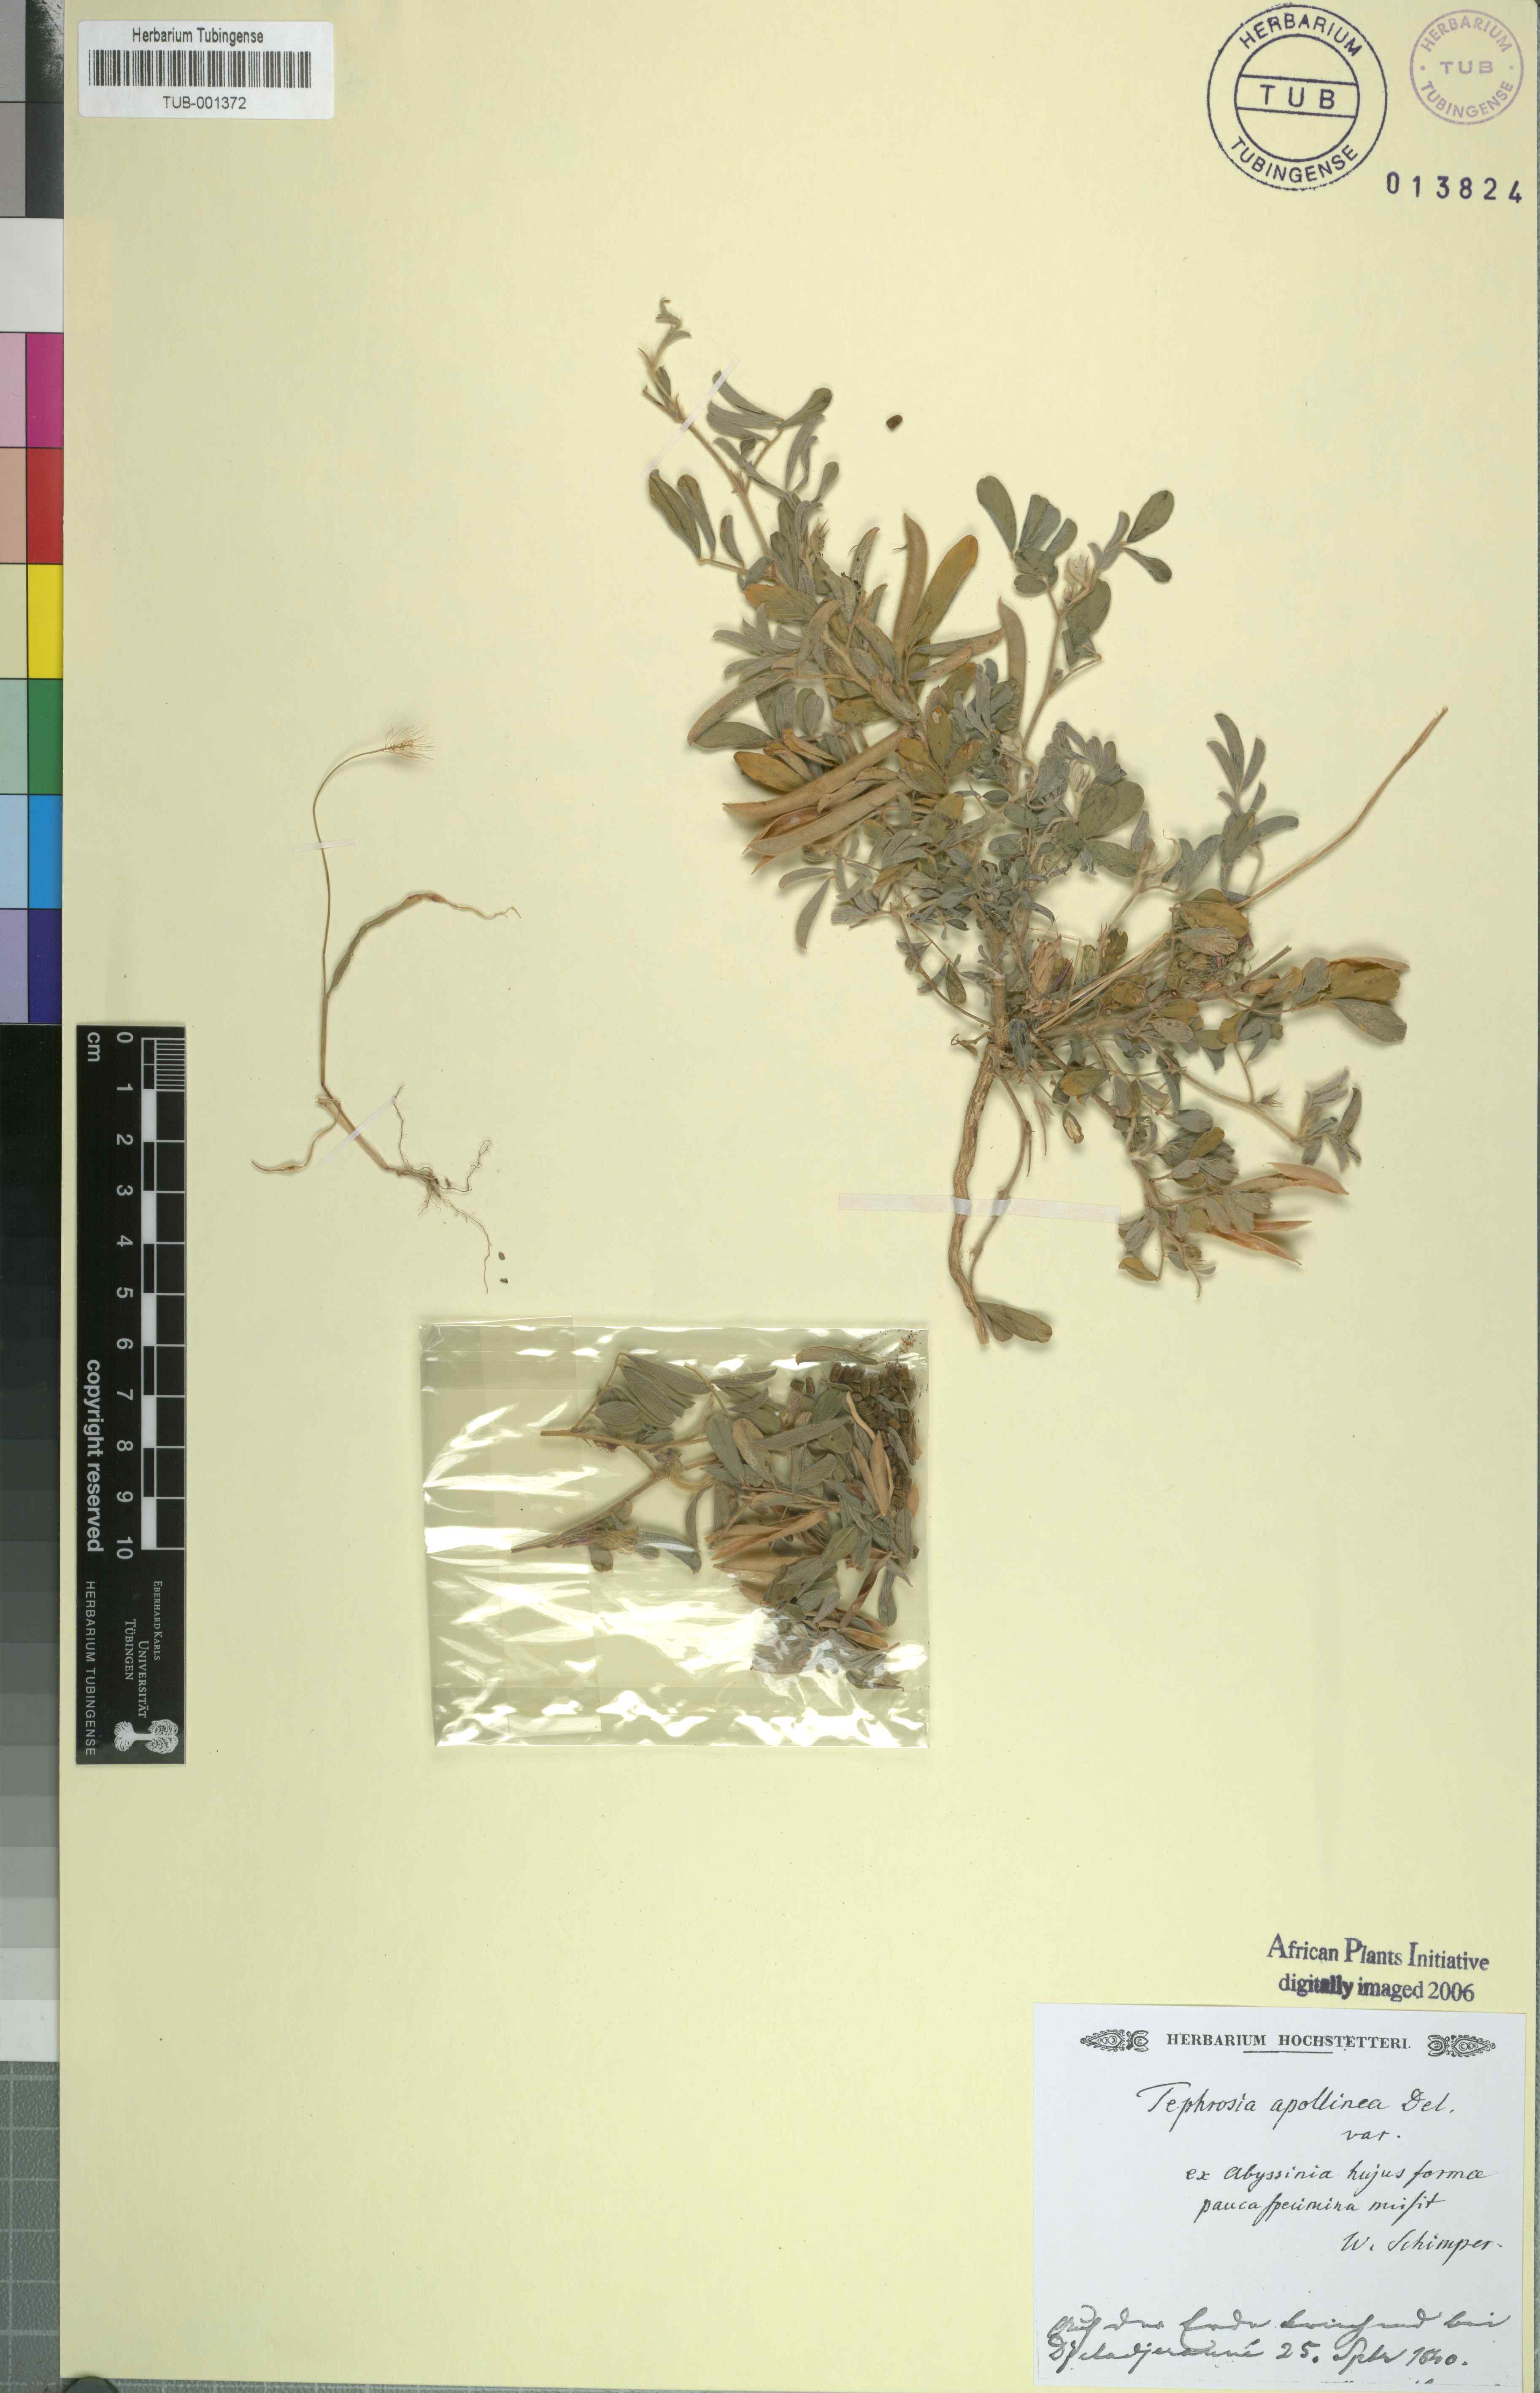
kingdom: Plantae
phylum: Tracheophyta
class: Magnoliopsida
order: Fabales
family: Fabaceae
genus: Tephrosia
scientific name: Tephrosia purpurea
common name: Fishpoison
